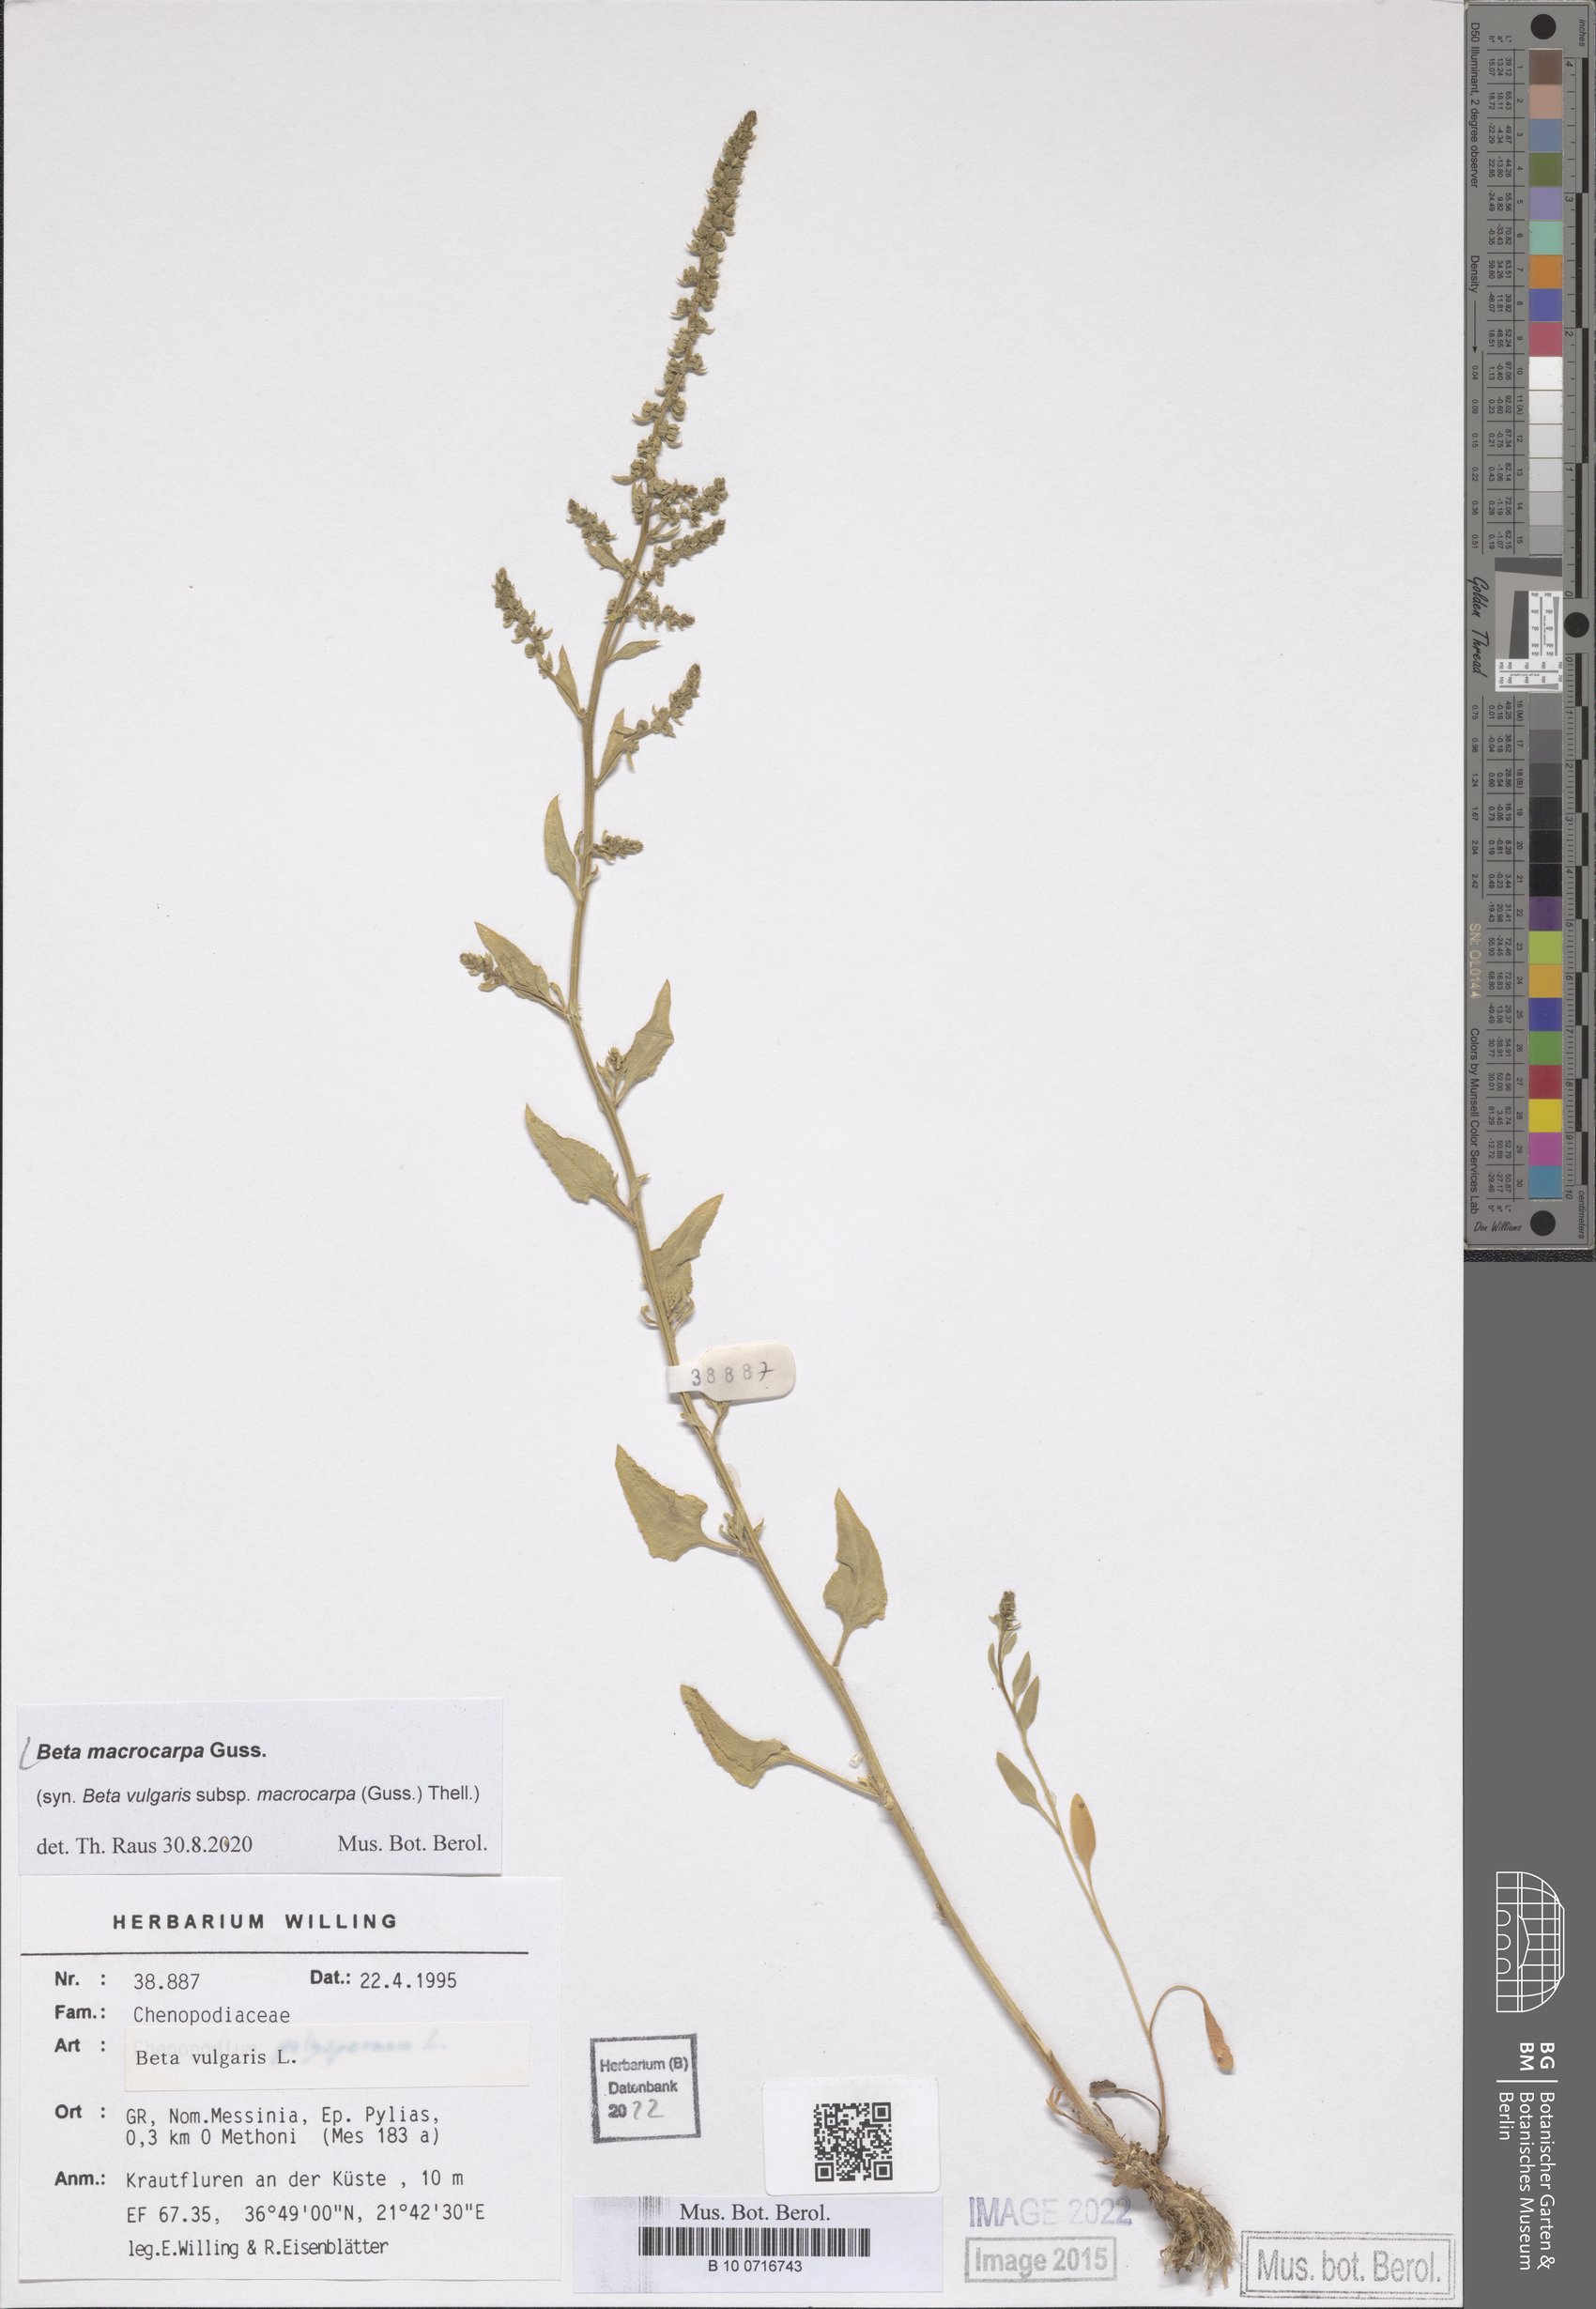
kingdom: Plantae
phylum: Tracheophyta
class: Magnoliopsida
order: Caryophyllales
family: Amaranthaceae
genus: Beta
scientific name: Beta macrocarpa
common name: Beet
